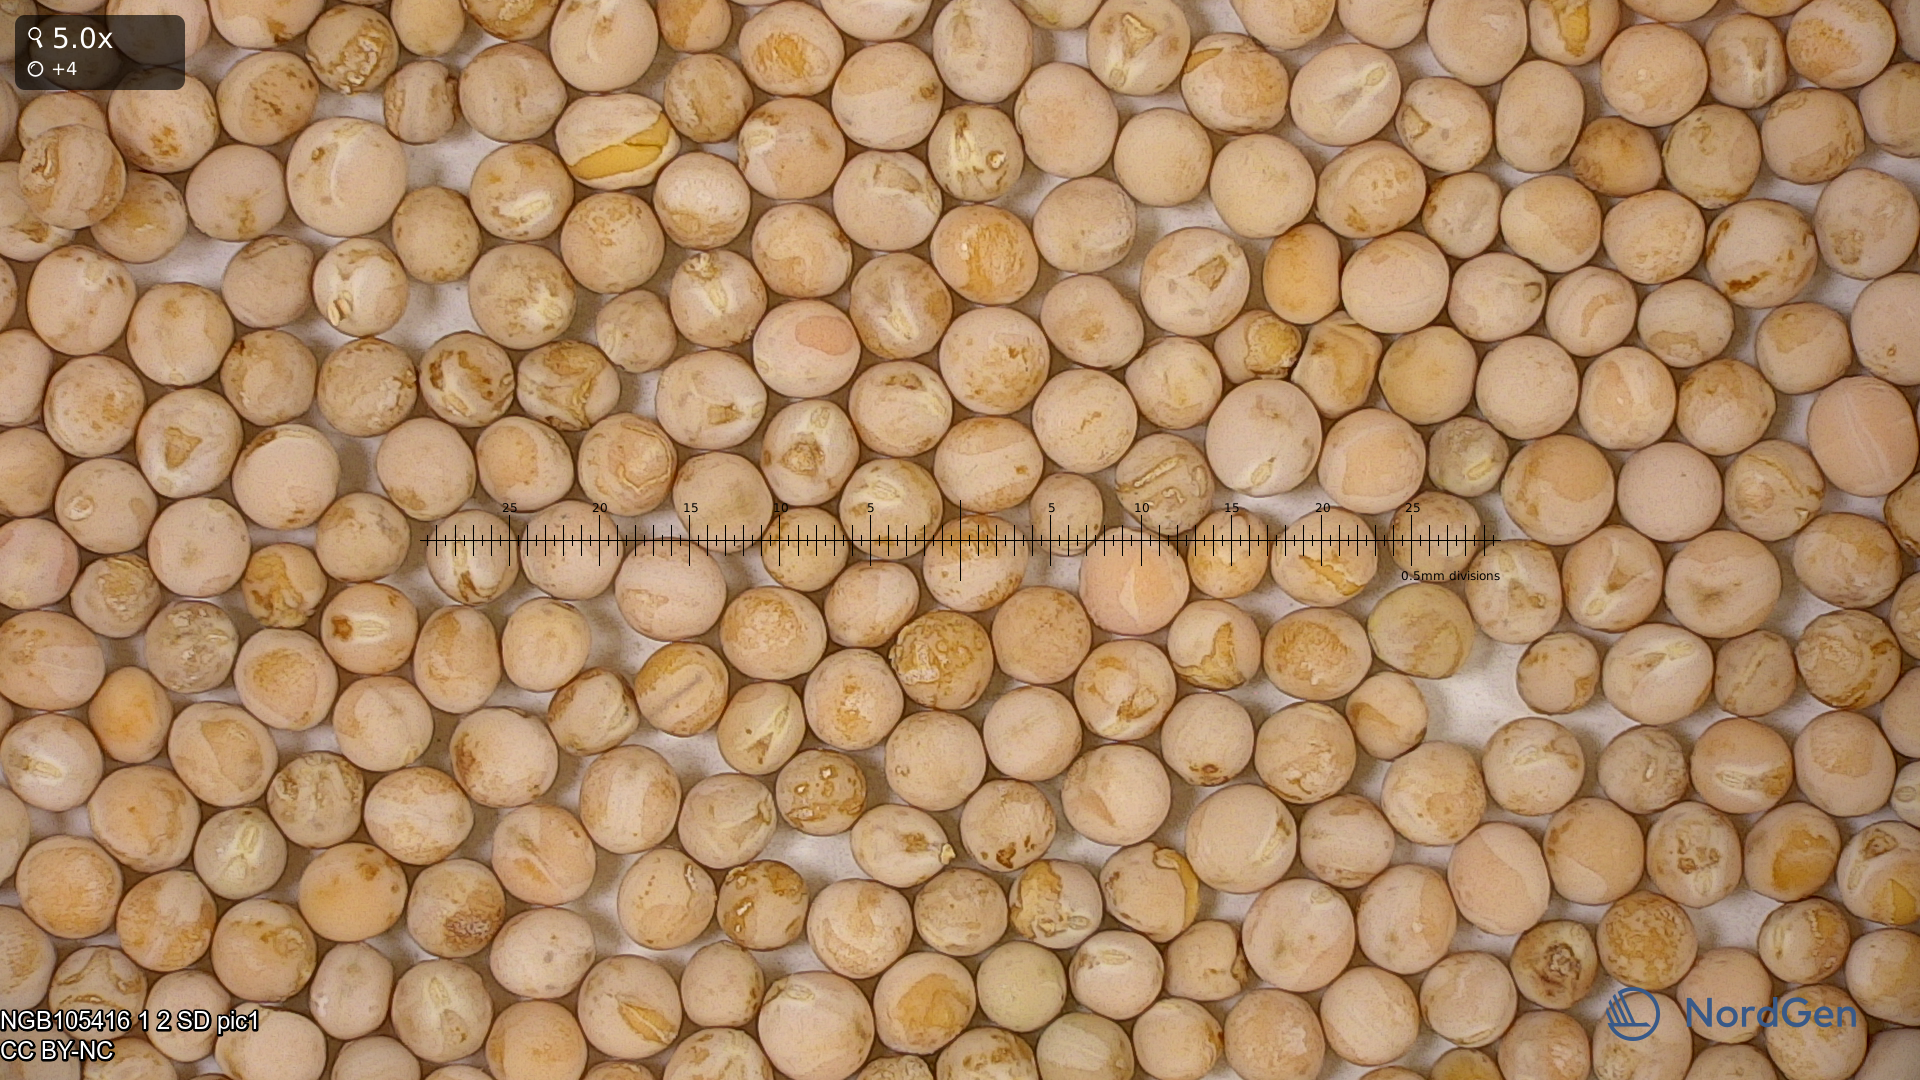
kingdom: Plantae
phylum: Tracheophyta
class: Magnoliopsida
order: Fabales
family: Fabaceae
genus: Lathyrus
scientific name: Lathyrus oleraceus
